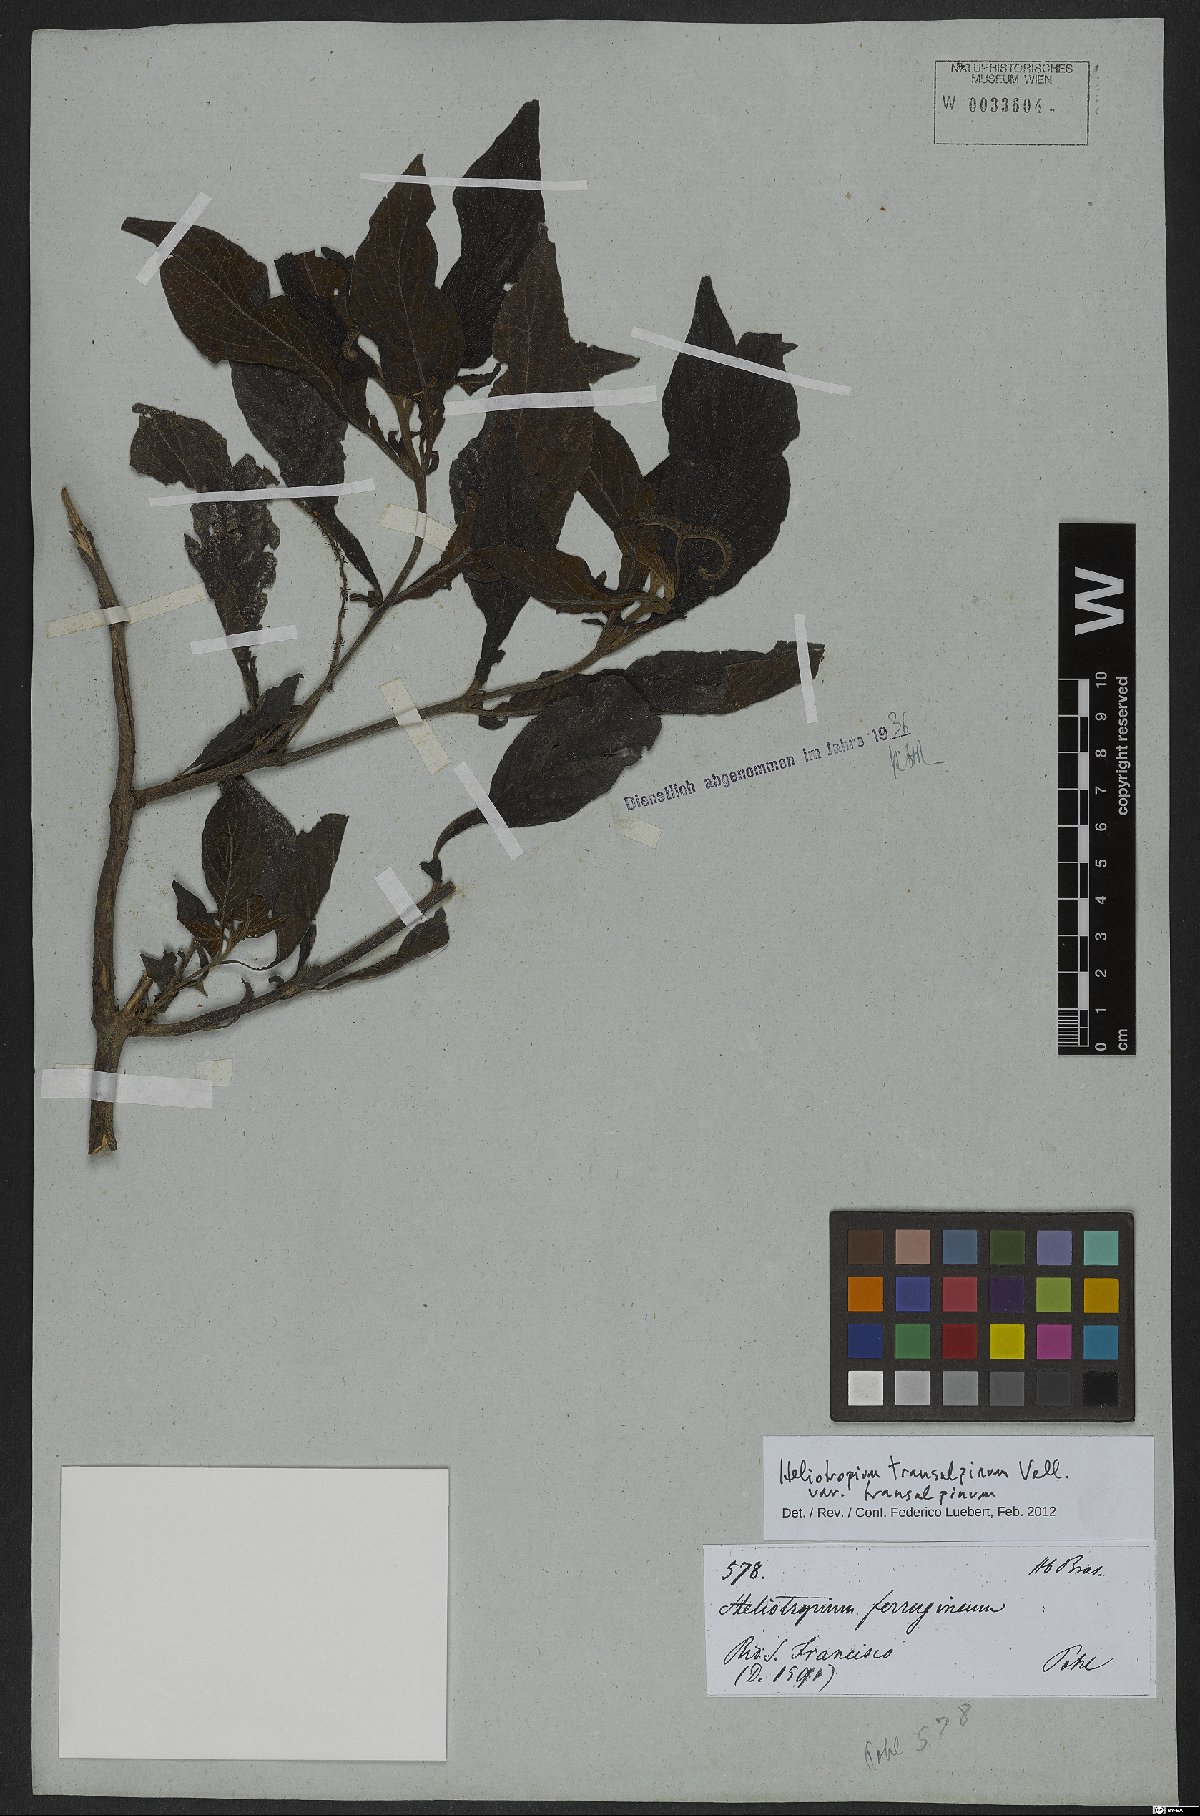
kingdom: Plantae
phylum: Tracheophyta
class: Magnoliopsida
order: Boraginales
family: Heliotropiaceae
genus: Heliotropium
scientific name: Heliotropium transalpinum
